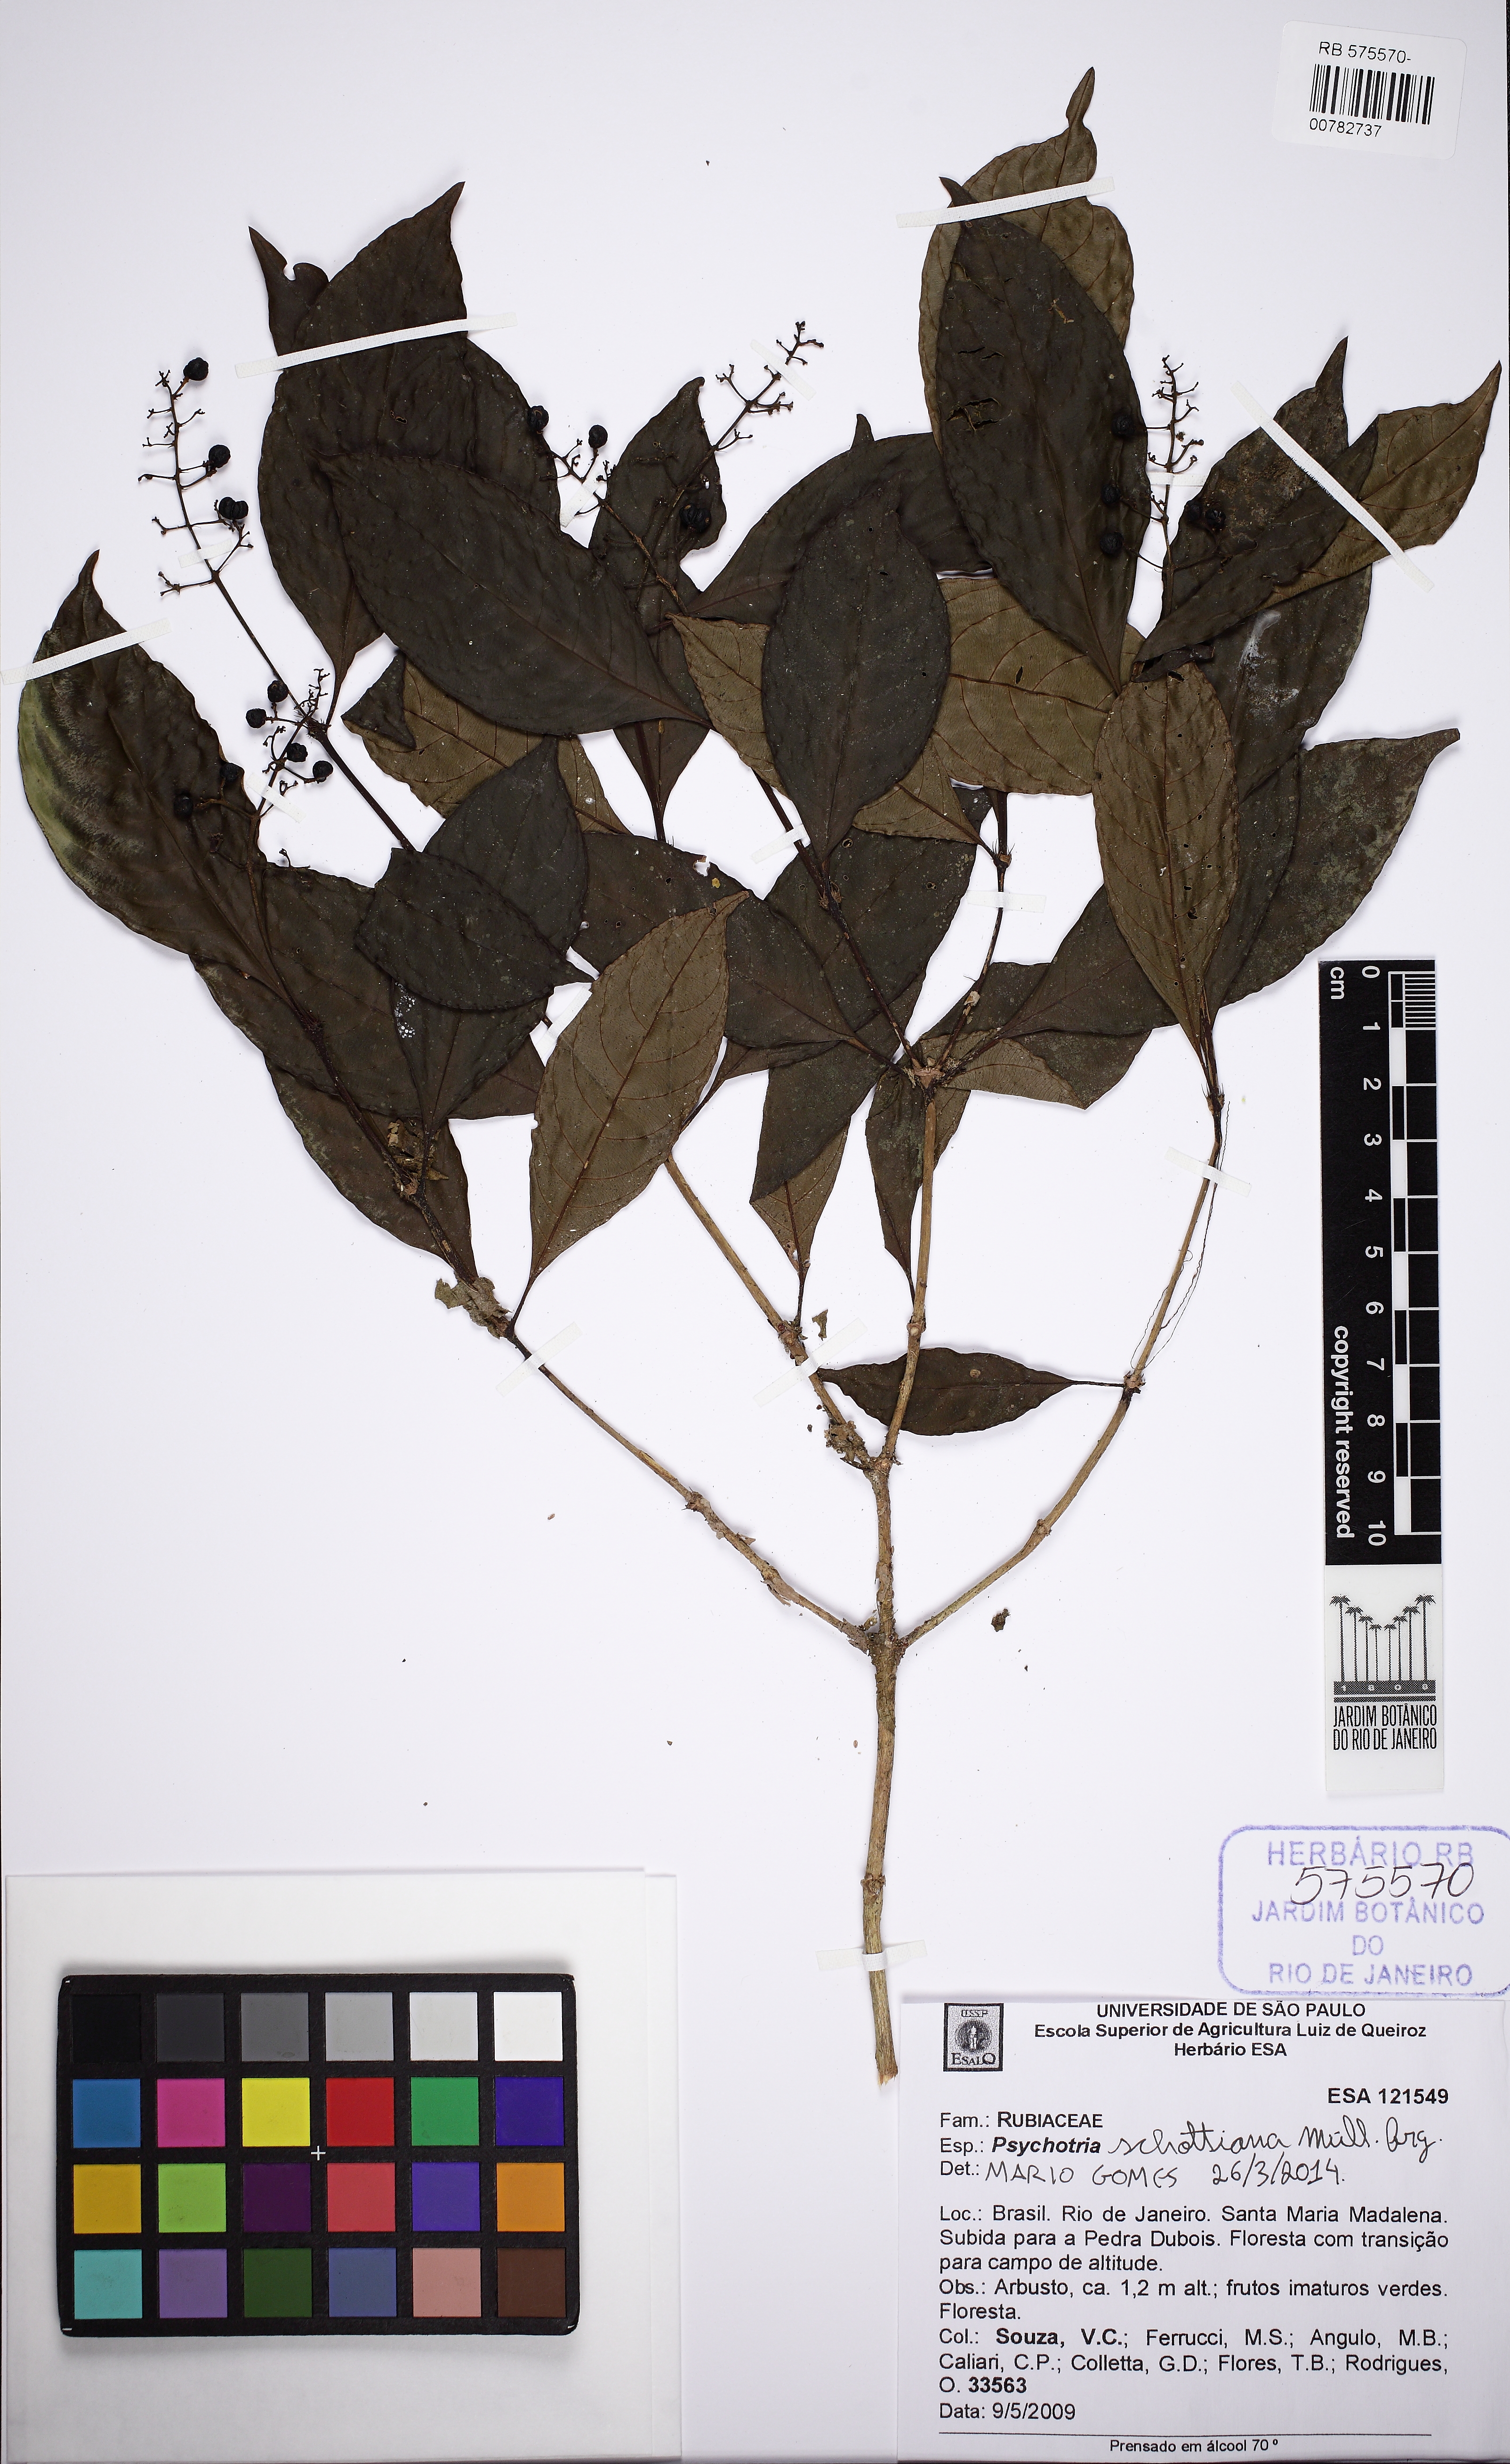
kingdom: Plantae
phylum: Tracheophyta
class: Magnoliopsida
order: Gentianales
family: Rubiaceae
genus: Palicourea
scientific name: Palicourea octocuspis
